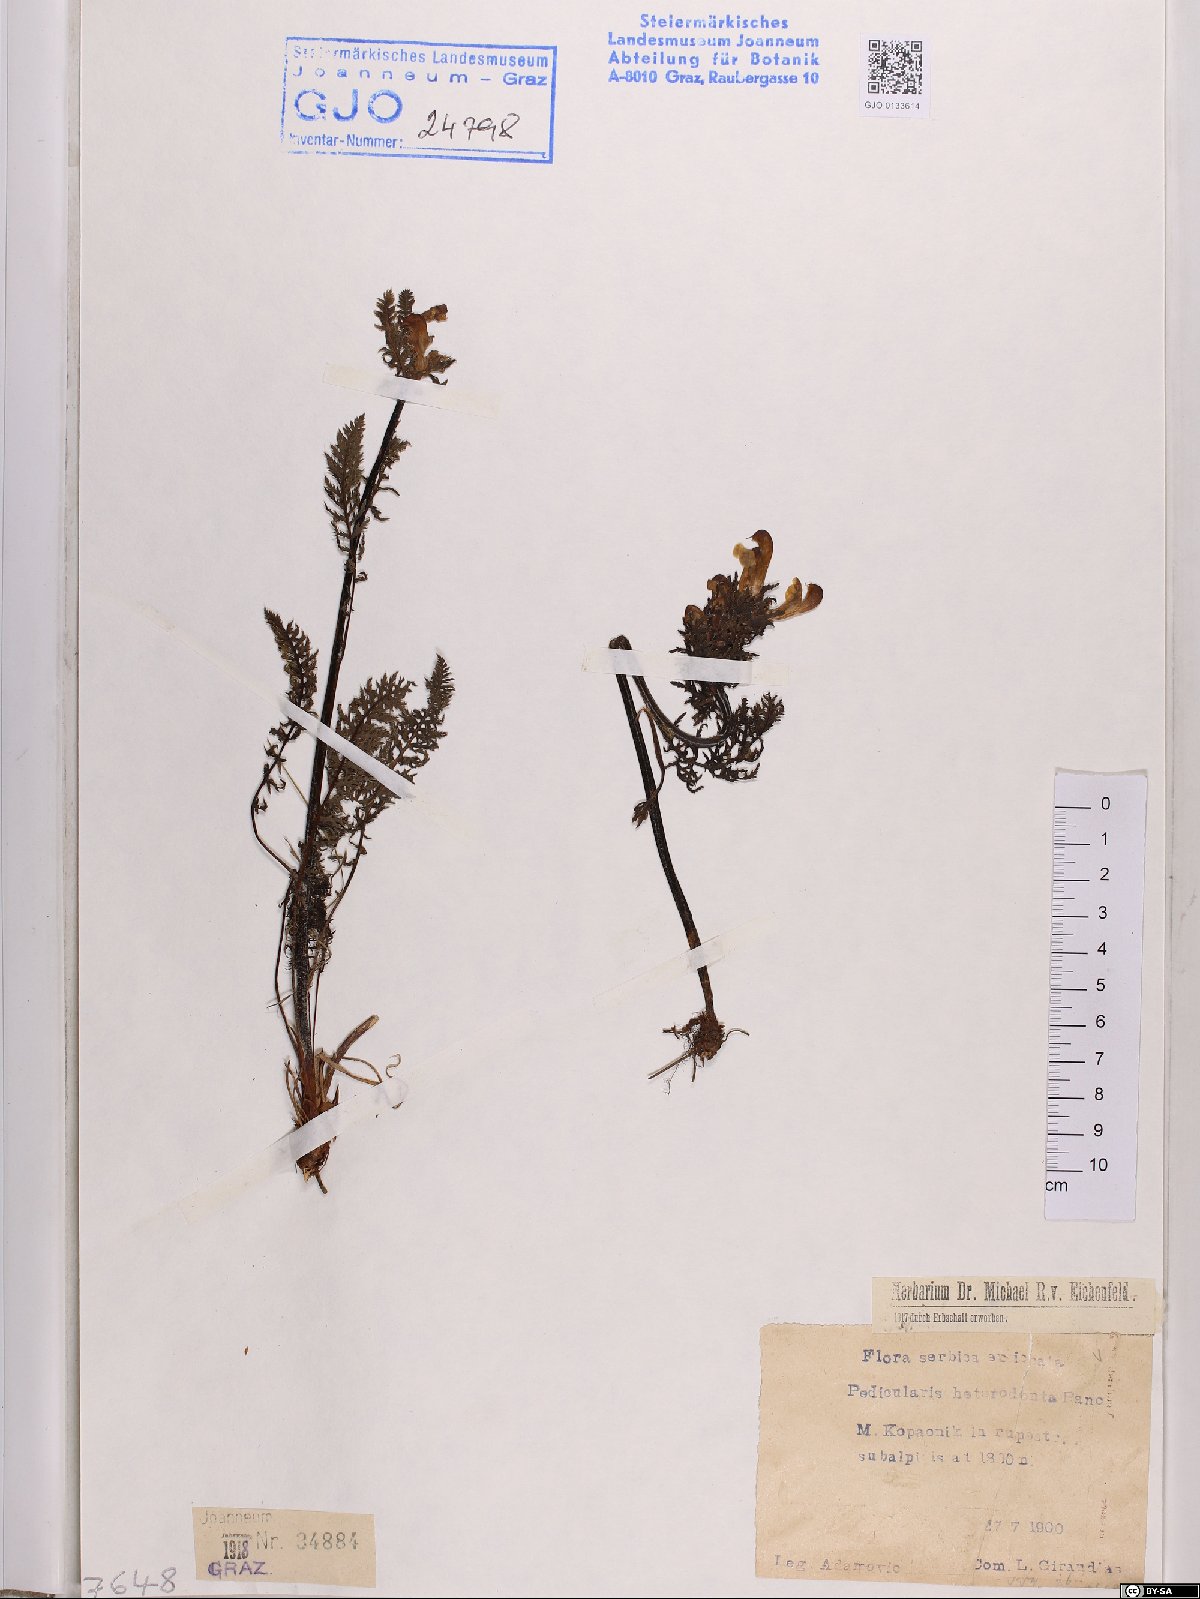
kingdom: Plantae
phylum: Tracheophyta
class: Magnoliopsida
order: Lamiales
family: Orobanchaceae
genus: Pedicularis
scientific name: Pedicularis heterodonta
